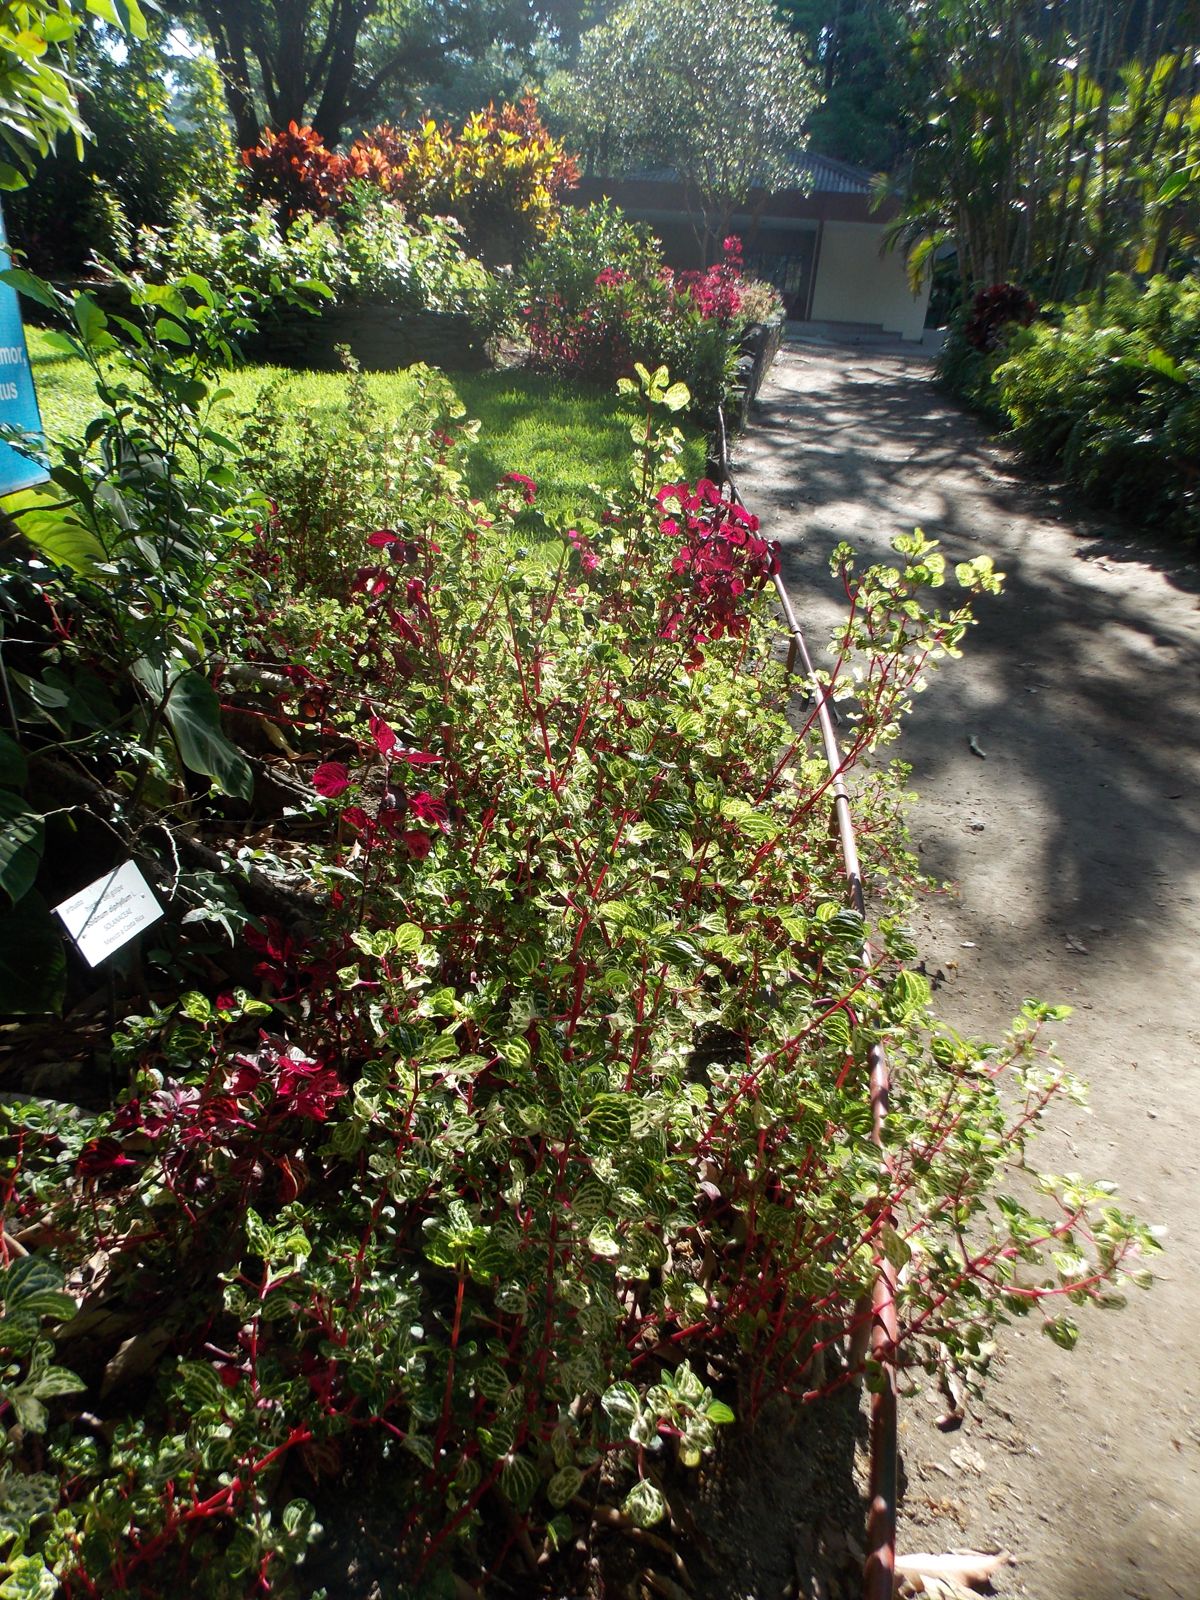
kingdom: Plantae
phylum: Tracheophyta
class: Magnoliopsida
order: Caryophyllales
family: Amaranthaceae
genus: Iresine
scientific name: Iresine diffusa
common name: Juba's-bush
